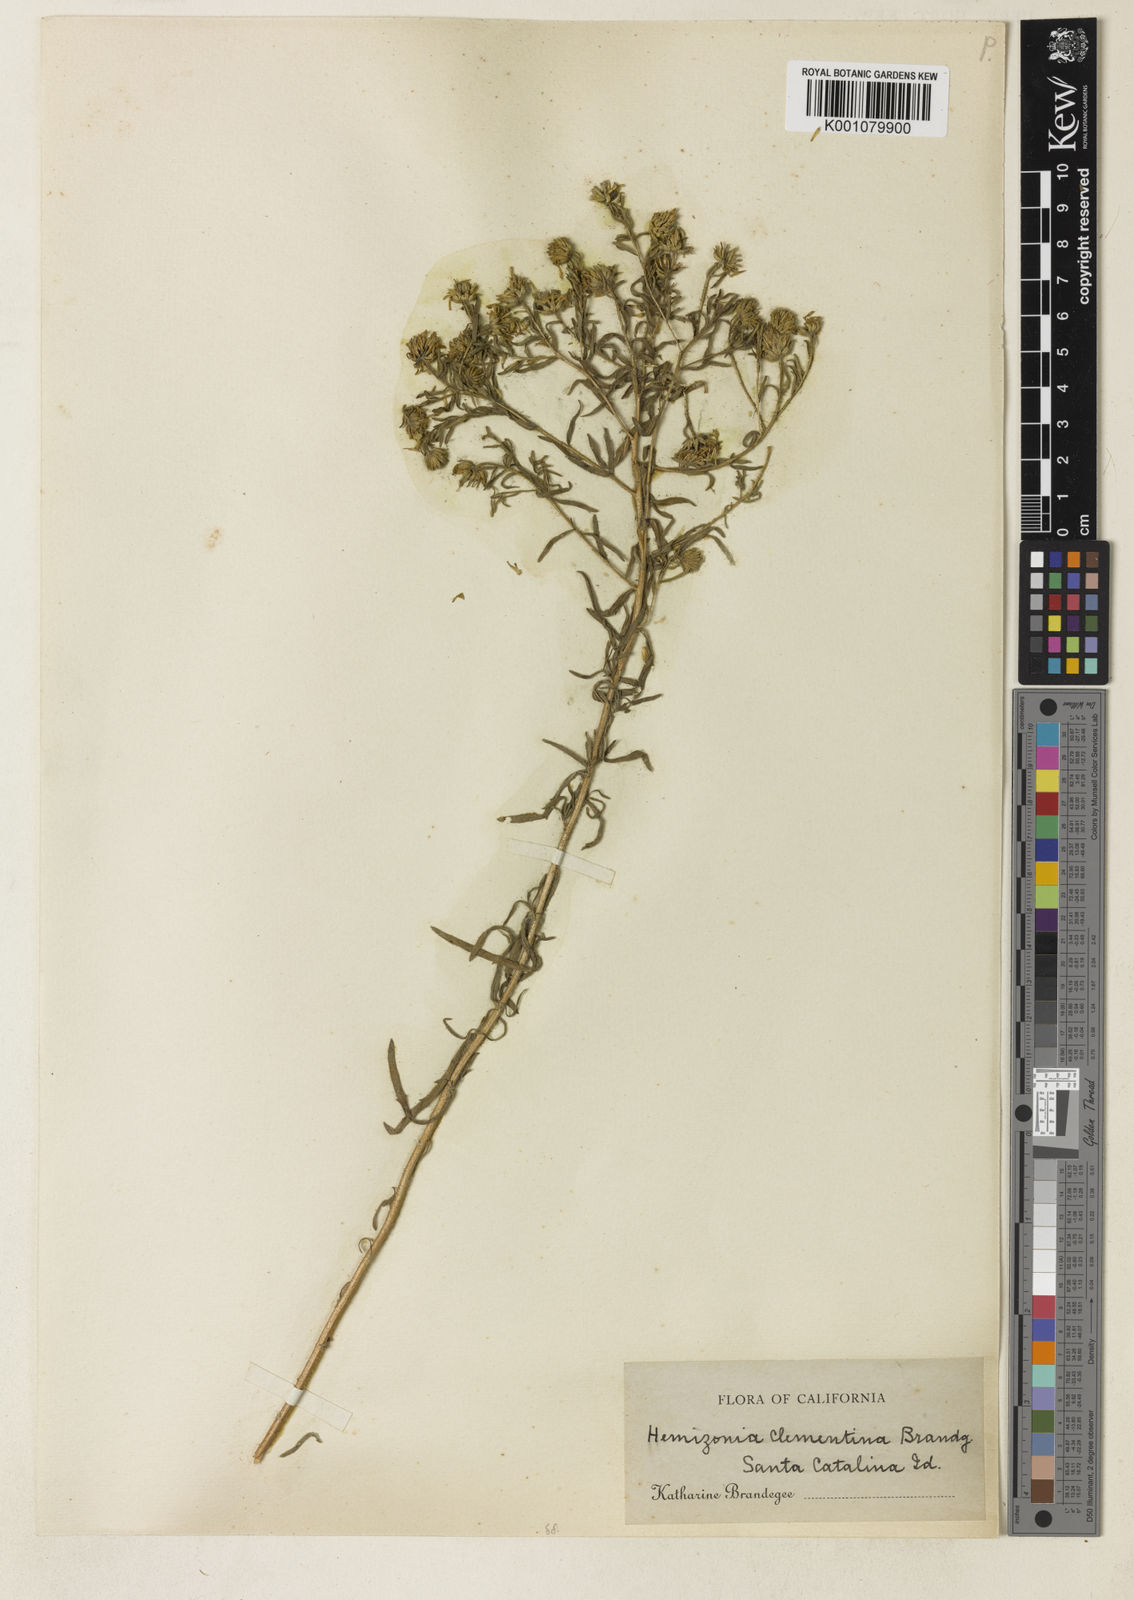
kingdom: Plantae
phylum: Tracheophyta
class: Magnoliopsida
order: Asterales
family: Asteraceae
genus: Deinandra
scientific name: Deinandra clementina
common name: Island tarplant
